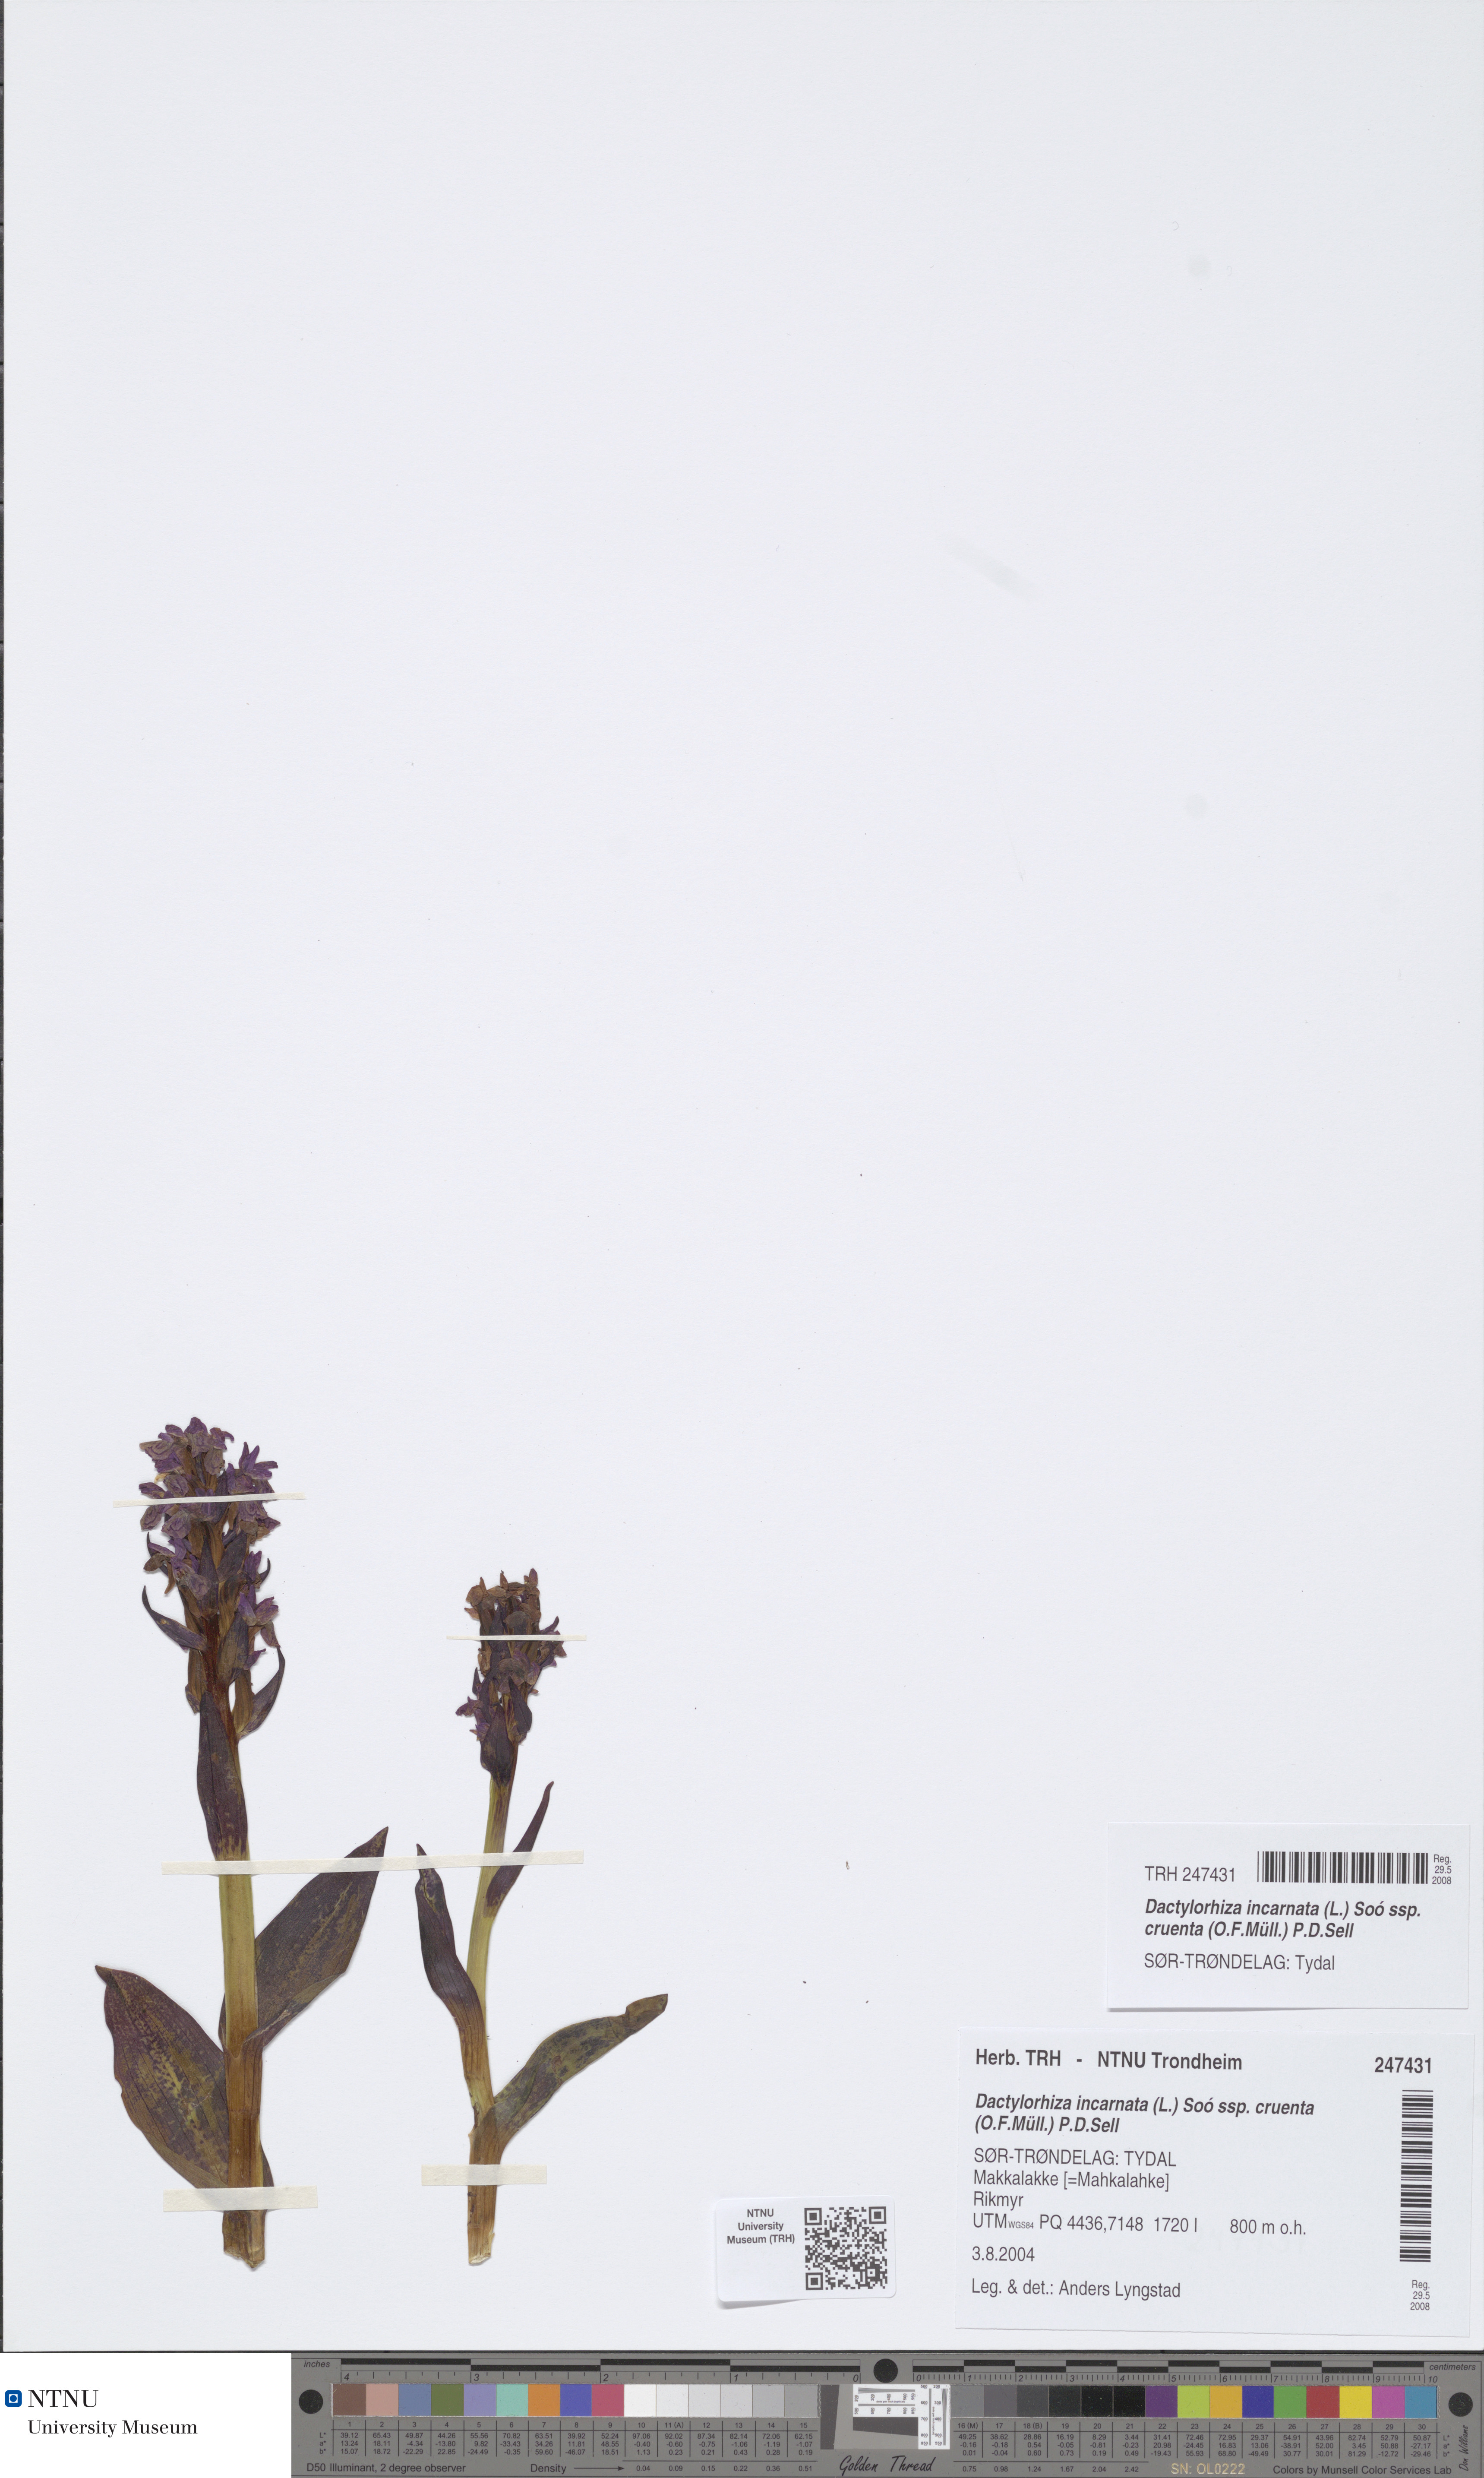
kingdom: Plantae
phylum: Tracheophyta
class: Liliopsida
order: Asparagales
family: Orchidaceae
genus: Dactylorhiza
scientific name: Dactylorhiza incarnata
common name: Early marsh-orchid
